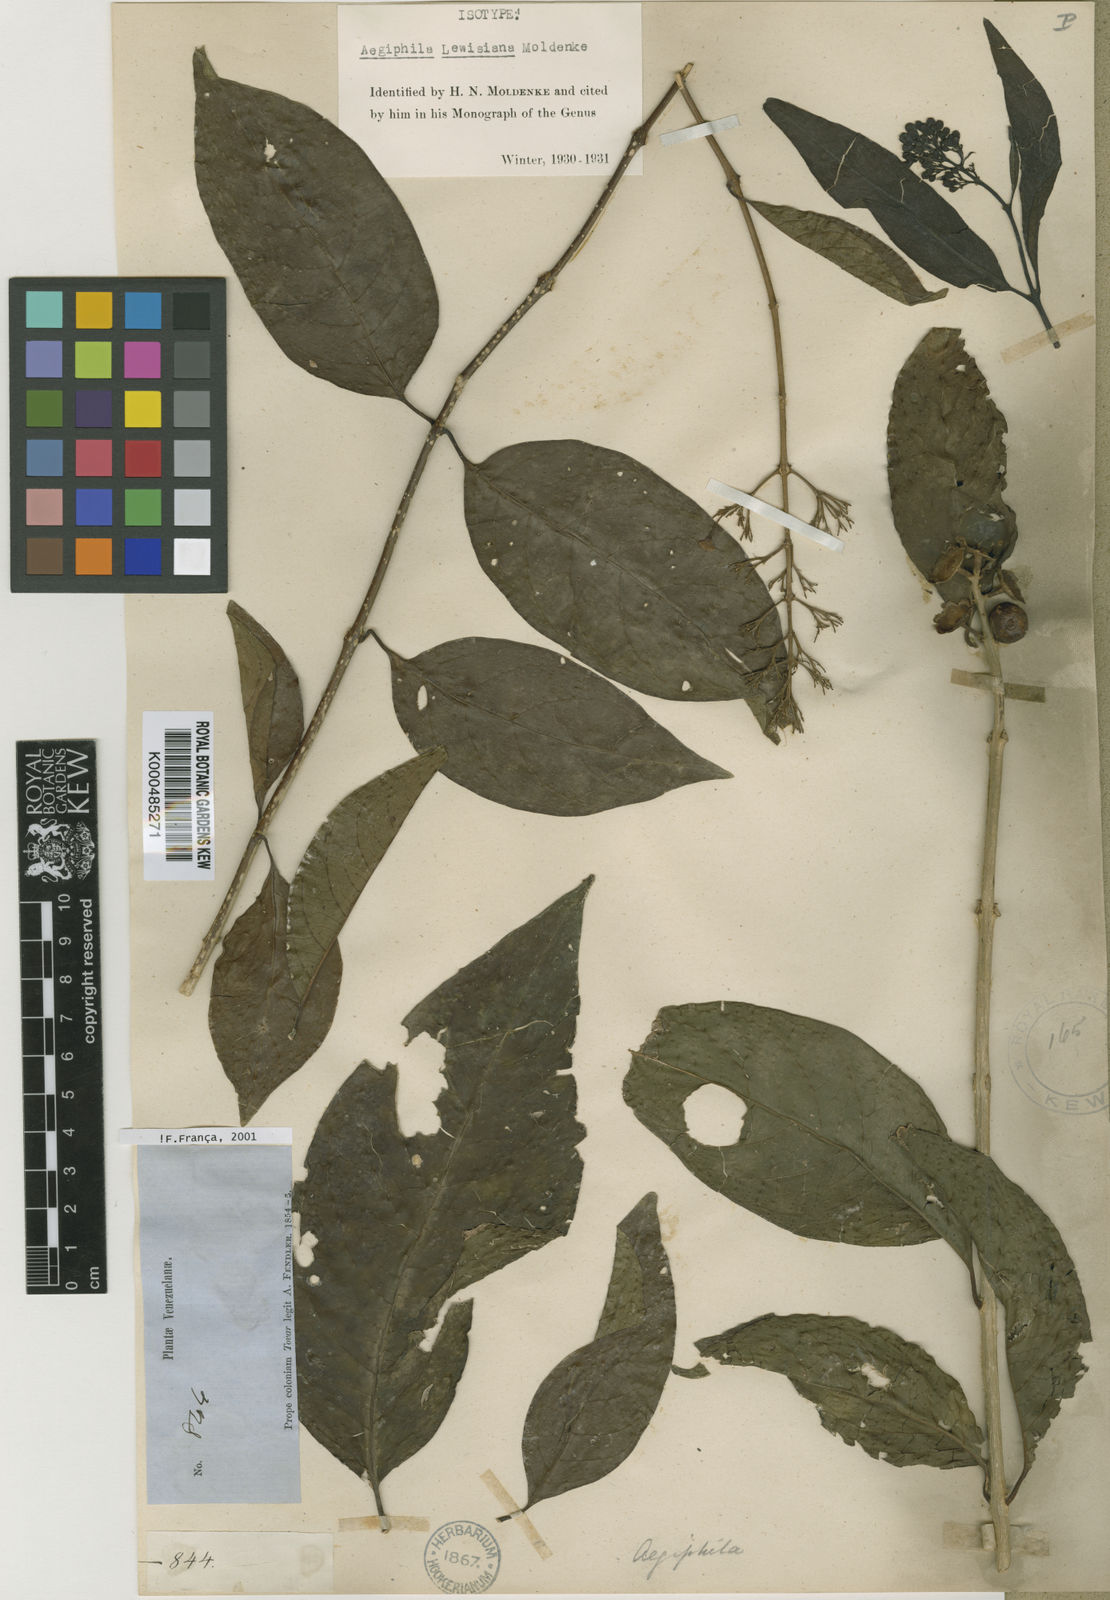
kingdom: Plantae
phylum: Tracheophyta
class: Magnoliopsida
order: Lamiales
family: Lamiaceae
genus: Aegiphila
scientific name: Aegiphila lewisiana
